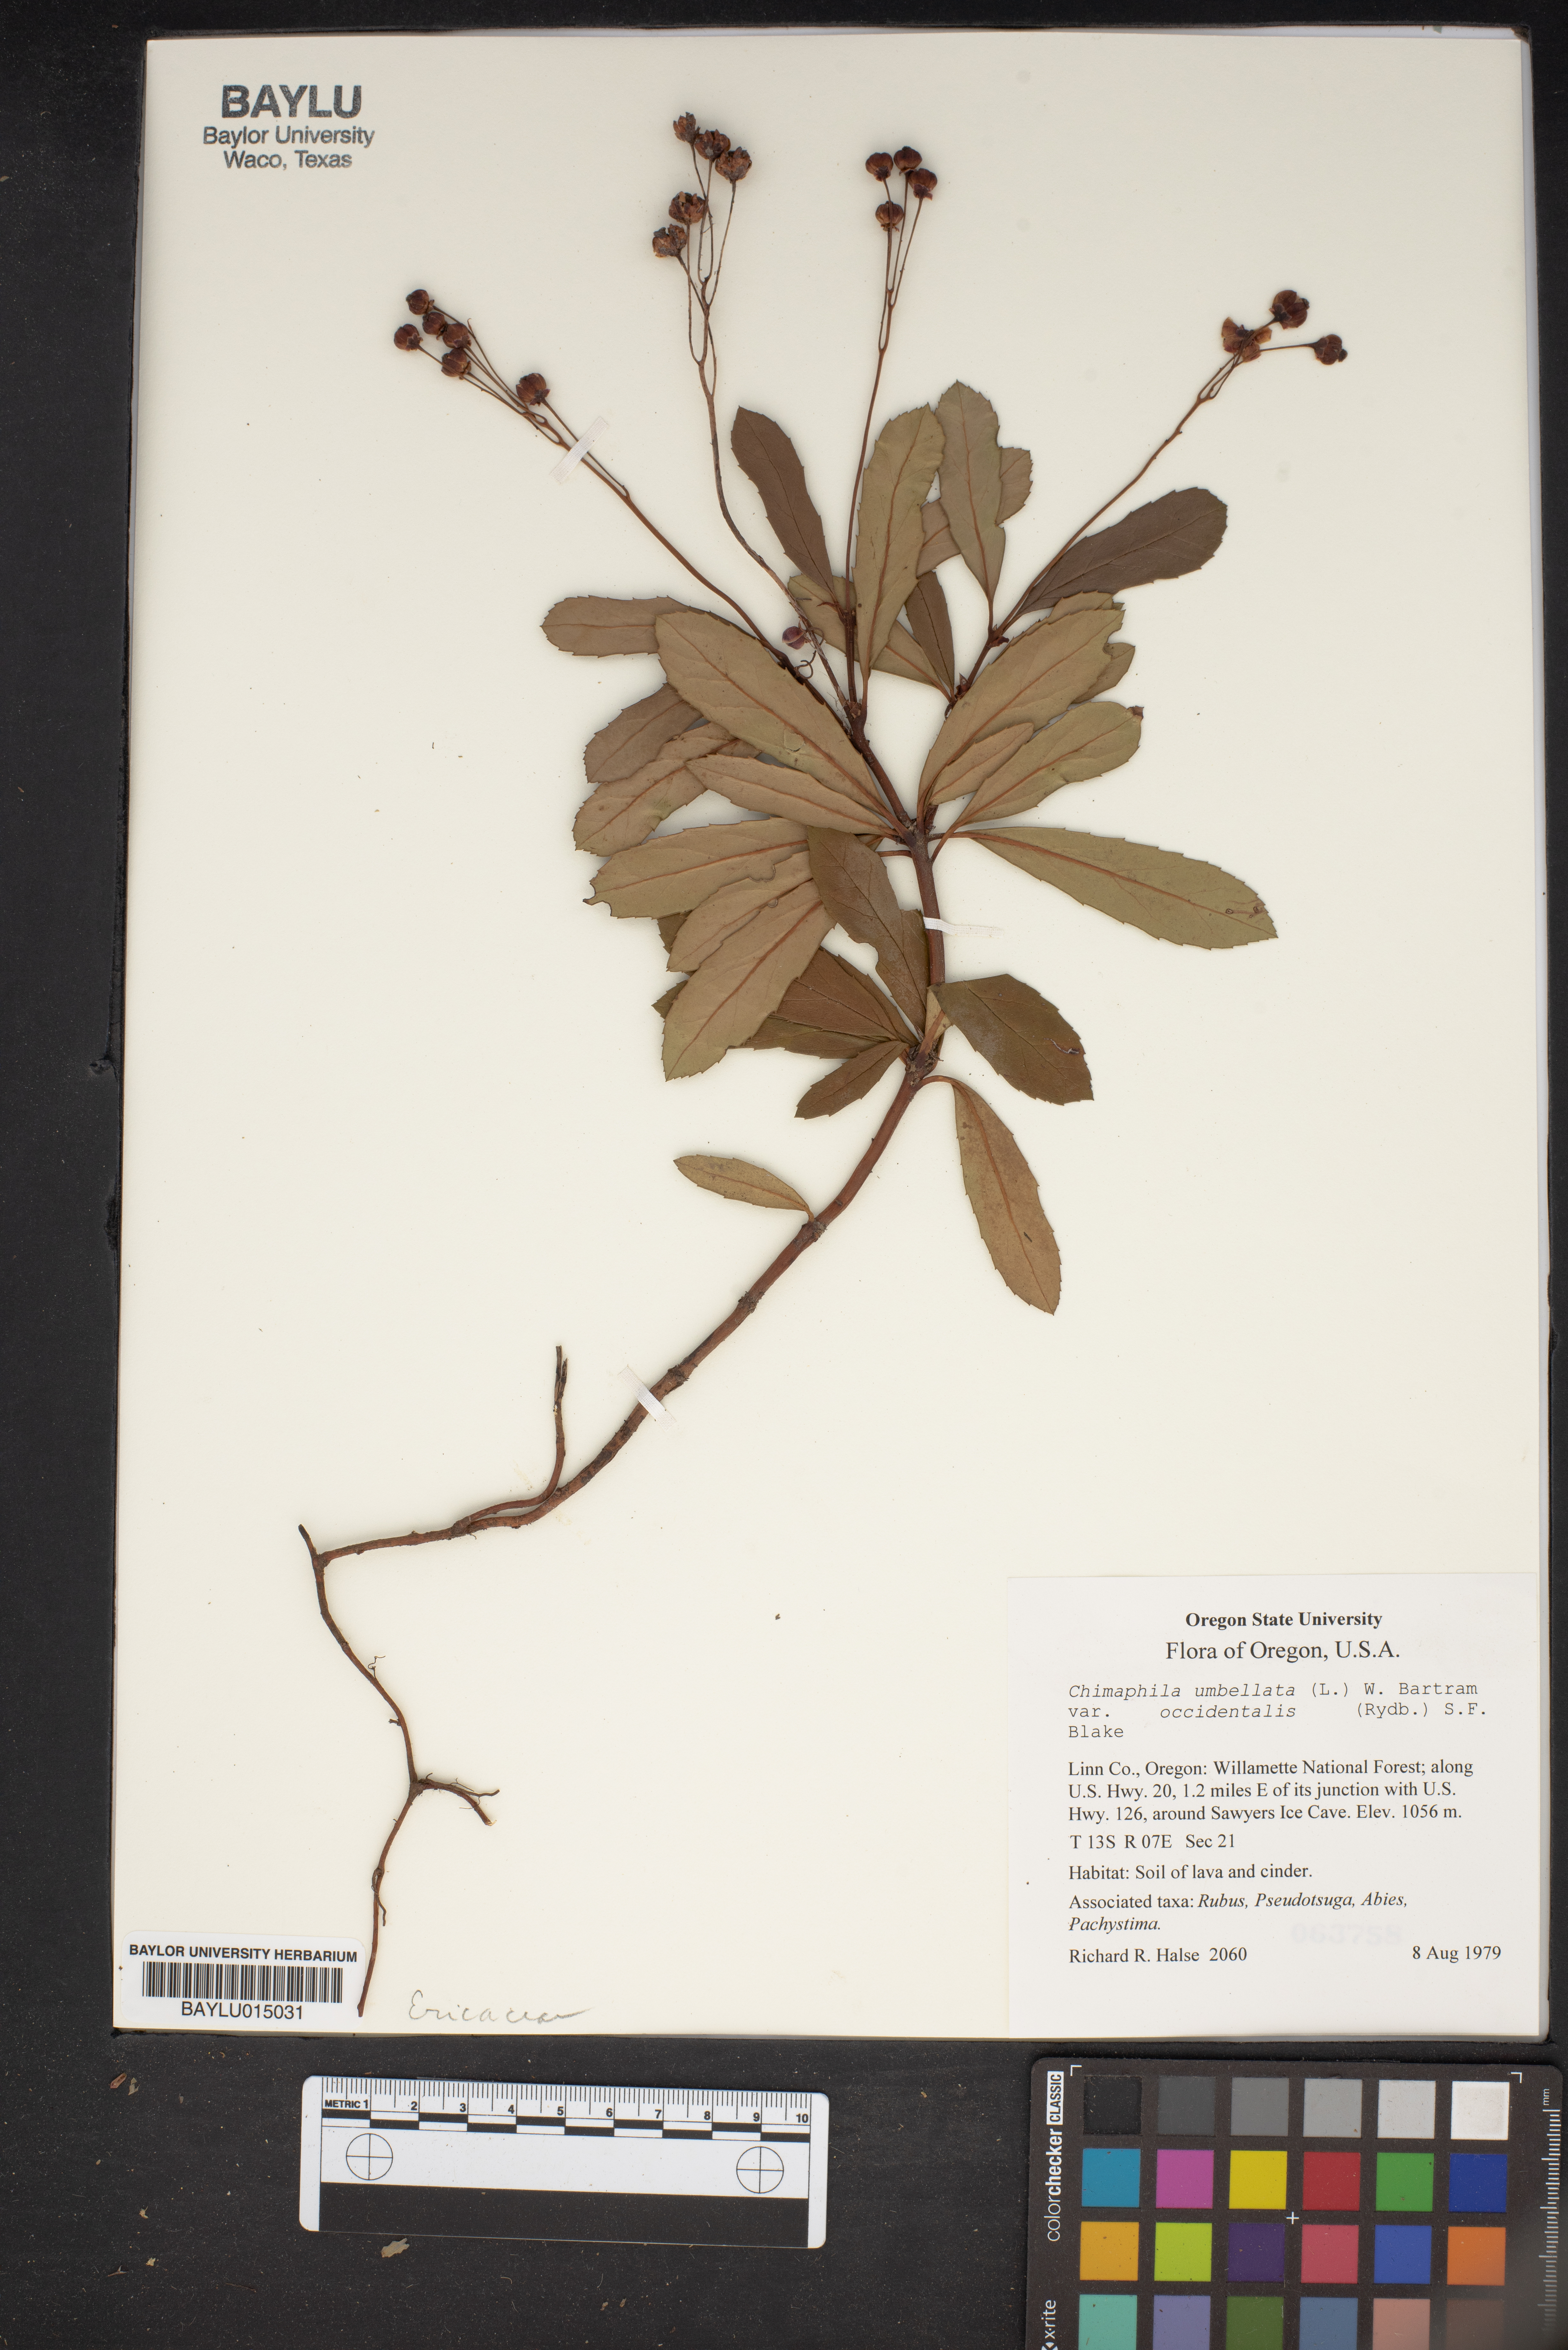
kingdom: Plantae
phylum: Tracheophyta
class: Magnoliopsida
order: Ericales
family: Ericaceae
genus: Chimaphila
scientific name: Chimaphila umbellata
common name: Pipsissewa
